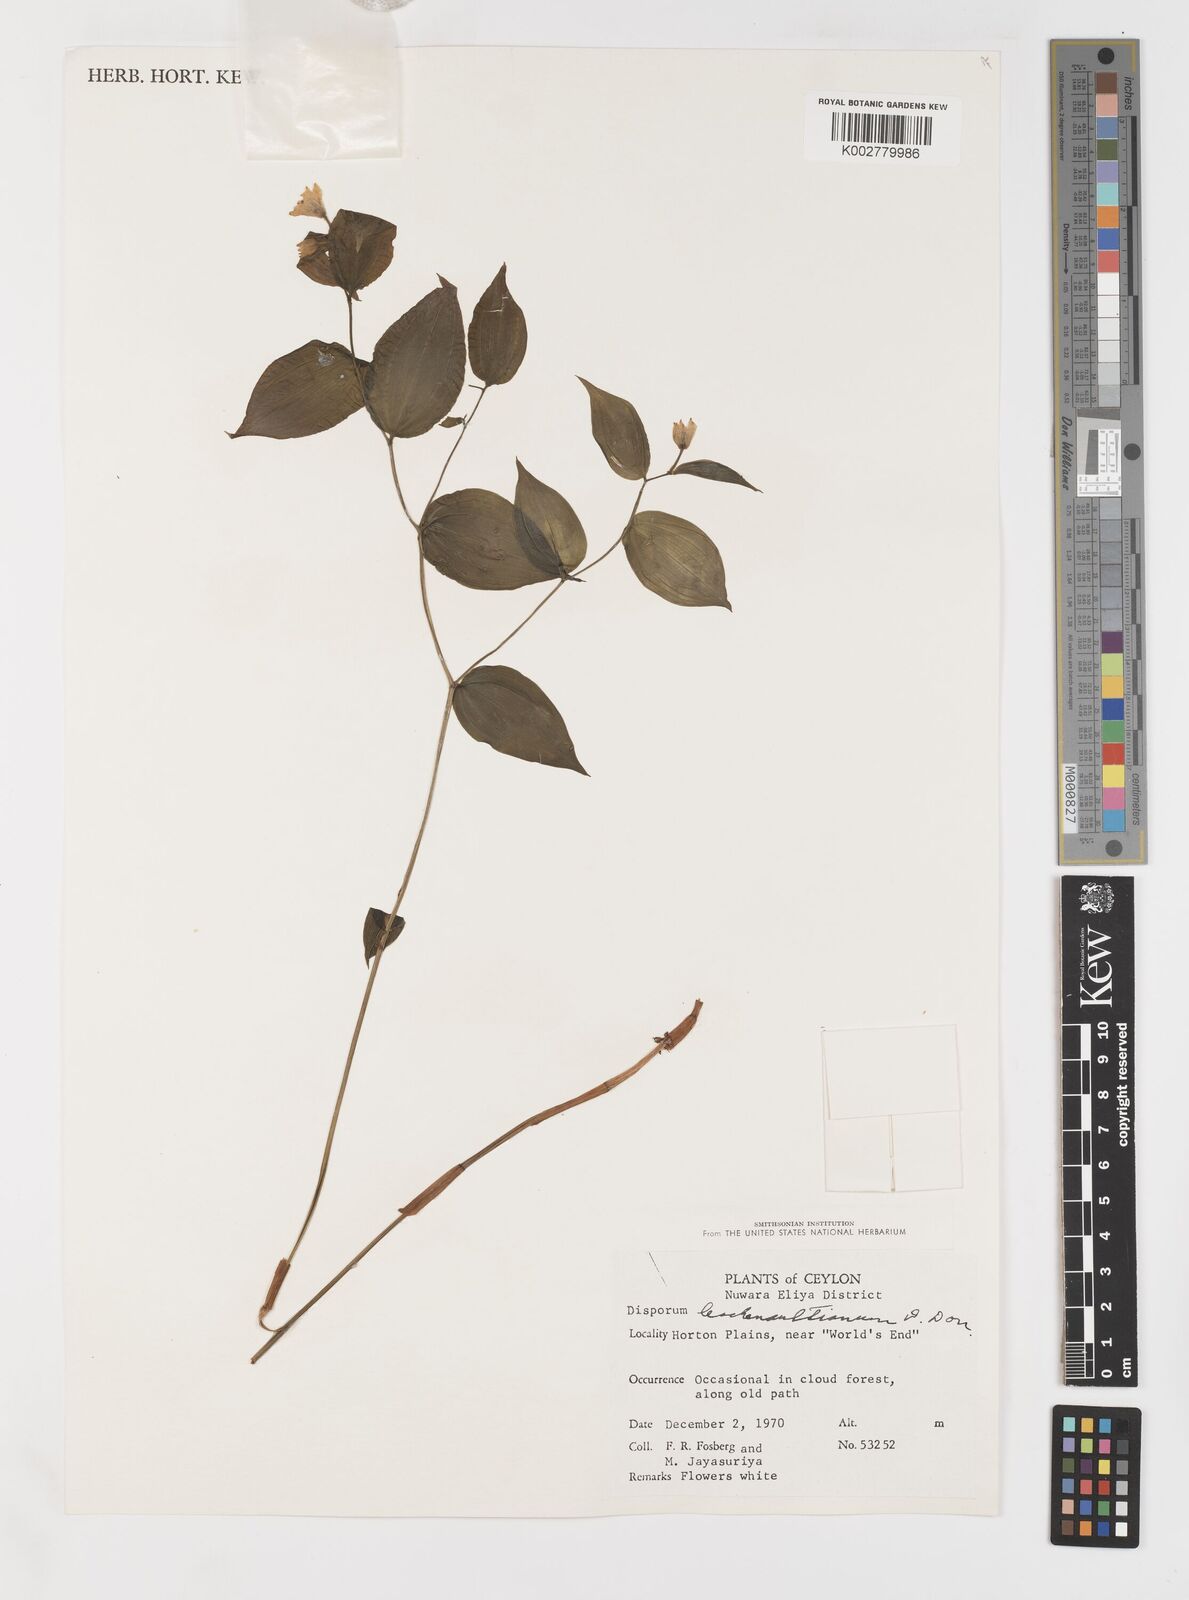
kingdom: Plantae
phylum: Tracheophyta
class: Liliopsida
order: Liliales
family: Colchicaceae
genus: Disporum
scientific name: Disporum cantoniense
